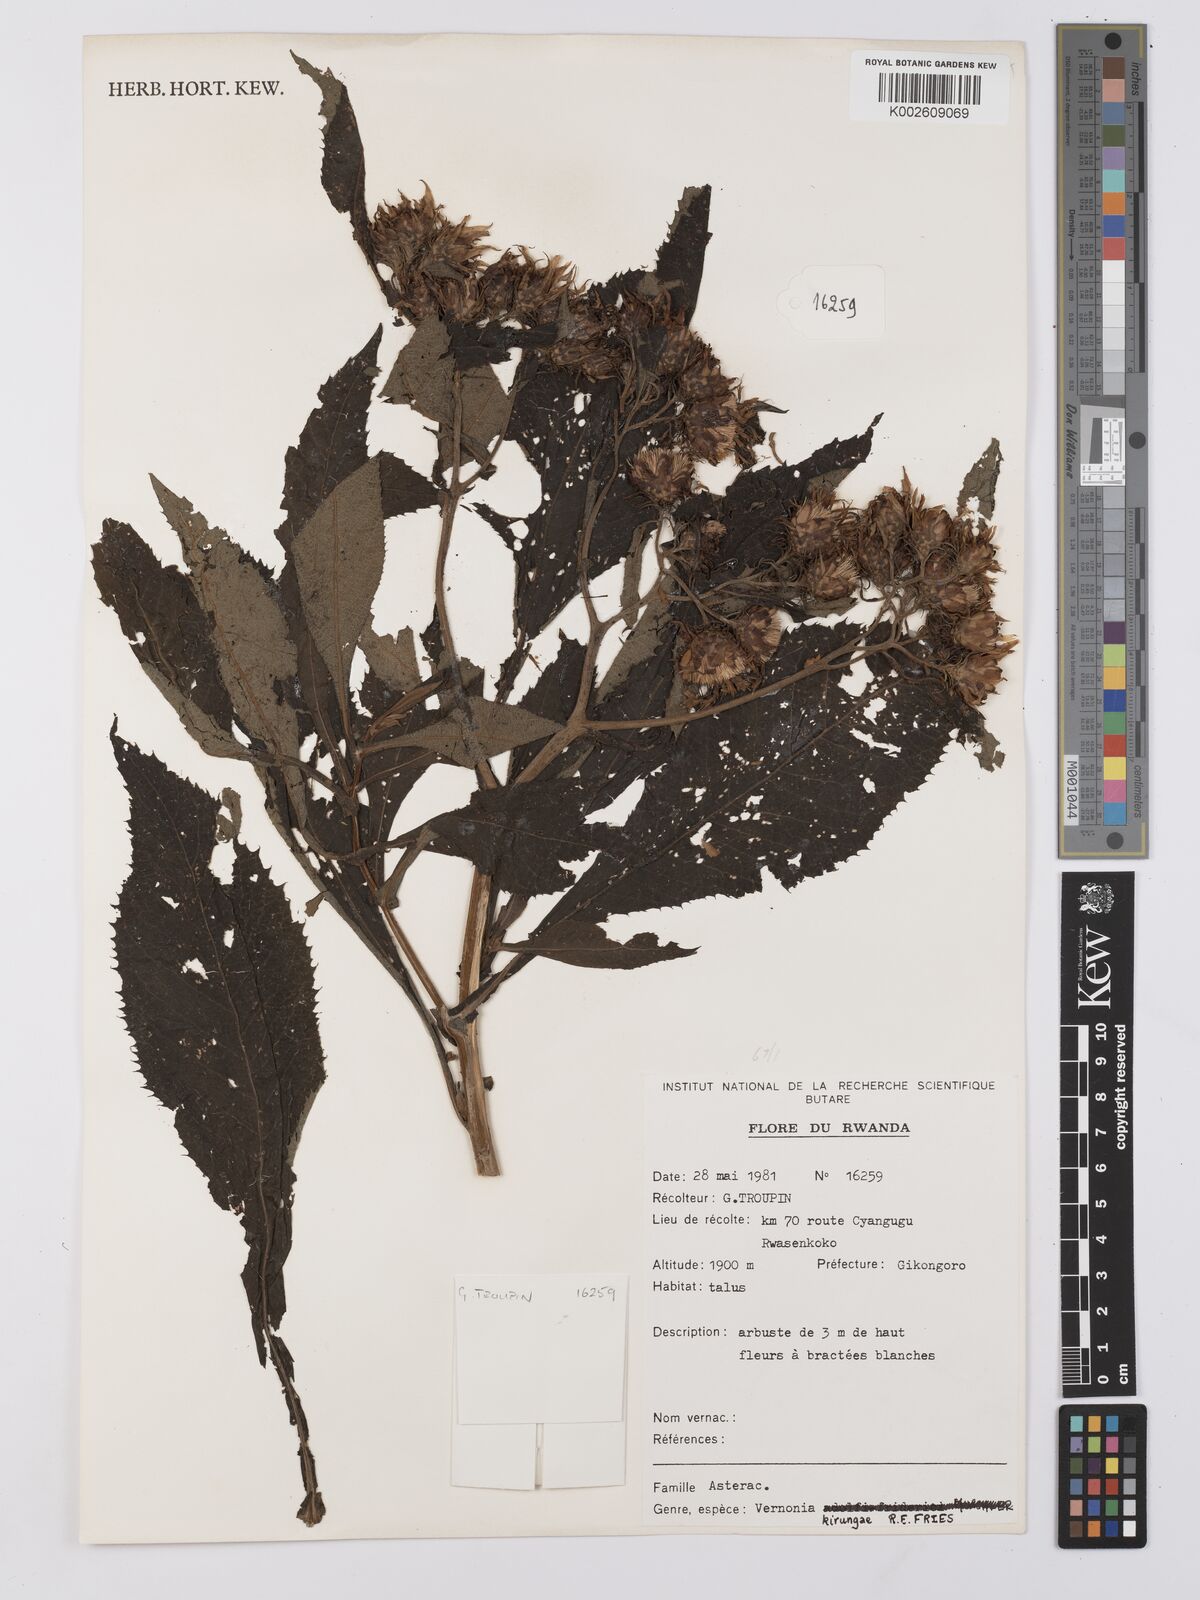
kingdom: Plantae
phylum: Tracheophyta
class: Magnoliopsida
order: Asterales
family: Asteraceae
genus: Baccharoides
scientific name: Baccharoides calvoana
